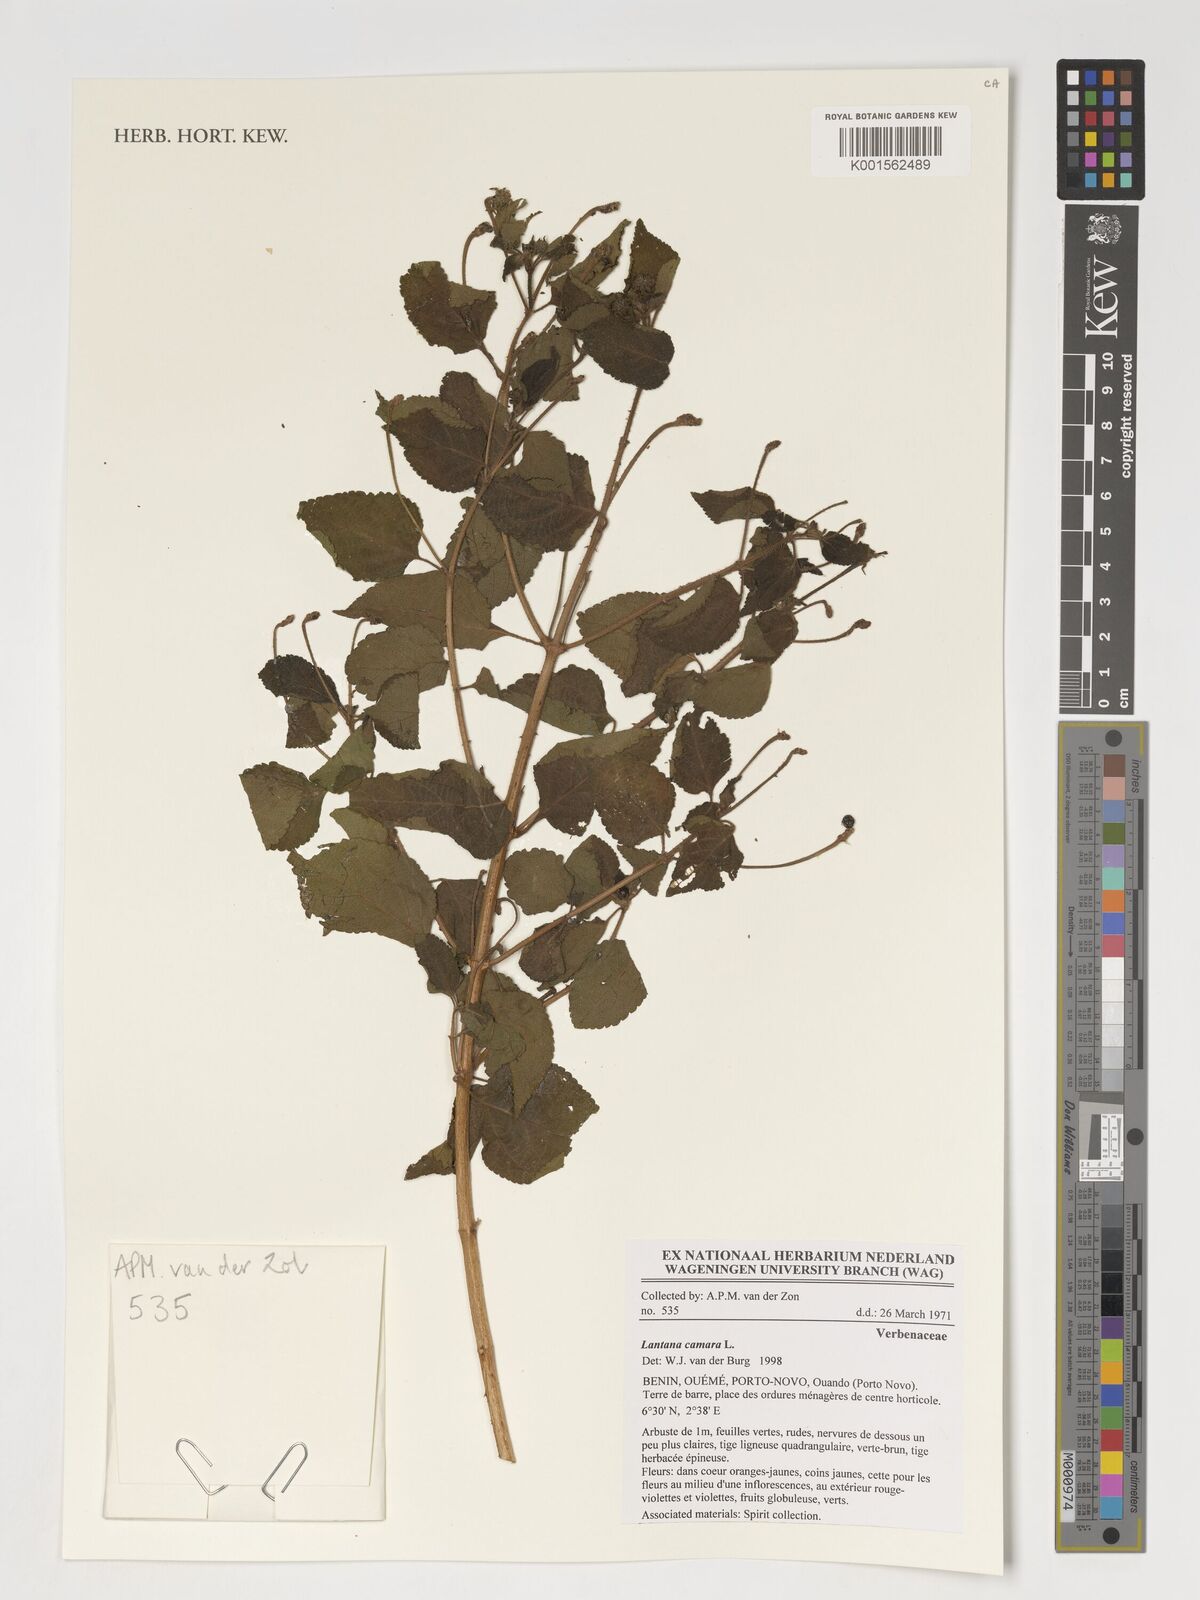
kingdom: Plantae
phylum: Tracheophyta
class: Magnoliopsida
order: Lamiales
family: Verbenaceae
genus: Lantana
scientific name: Lantana camara
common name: Lantana
